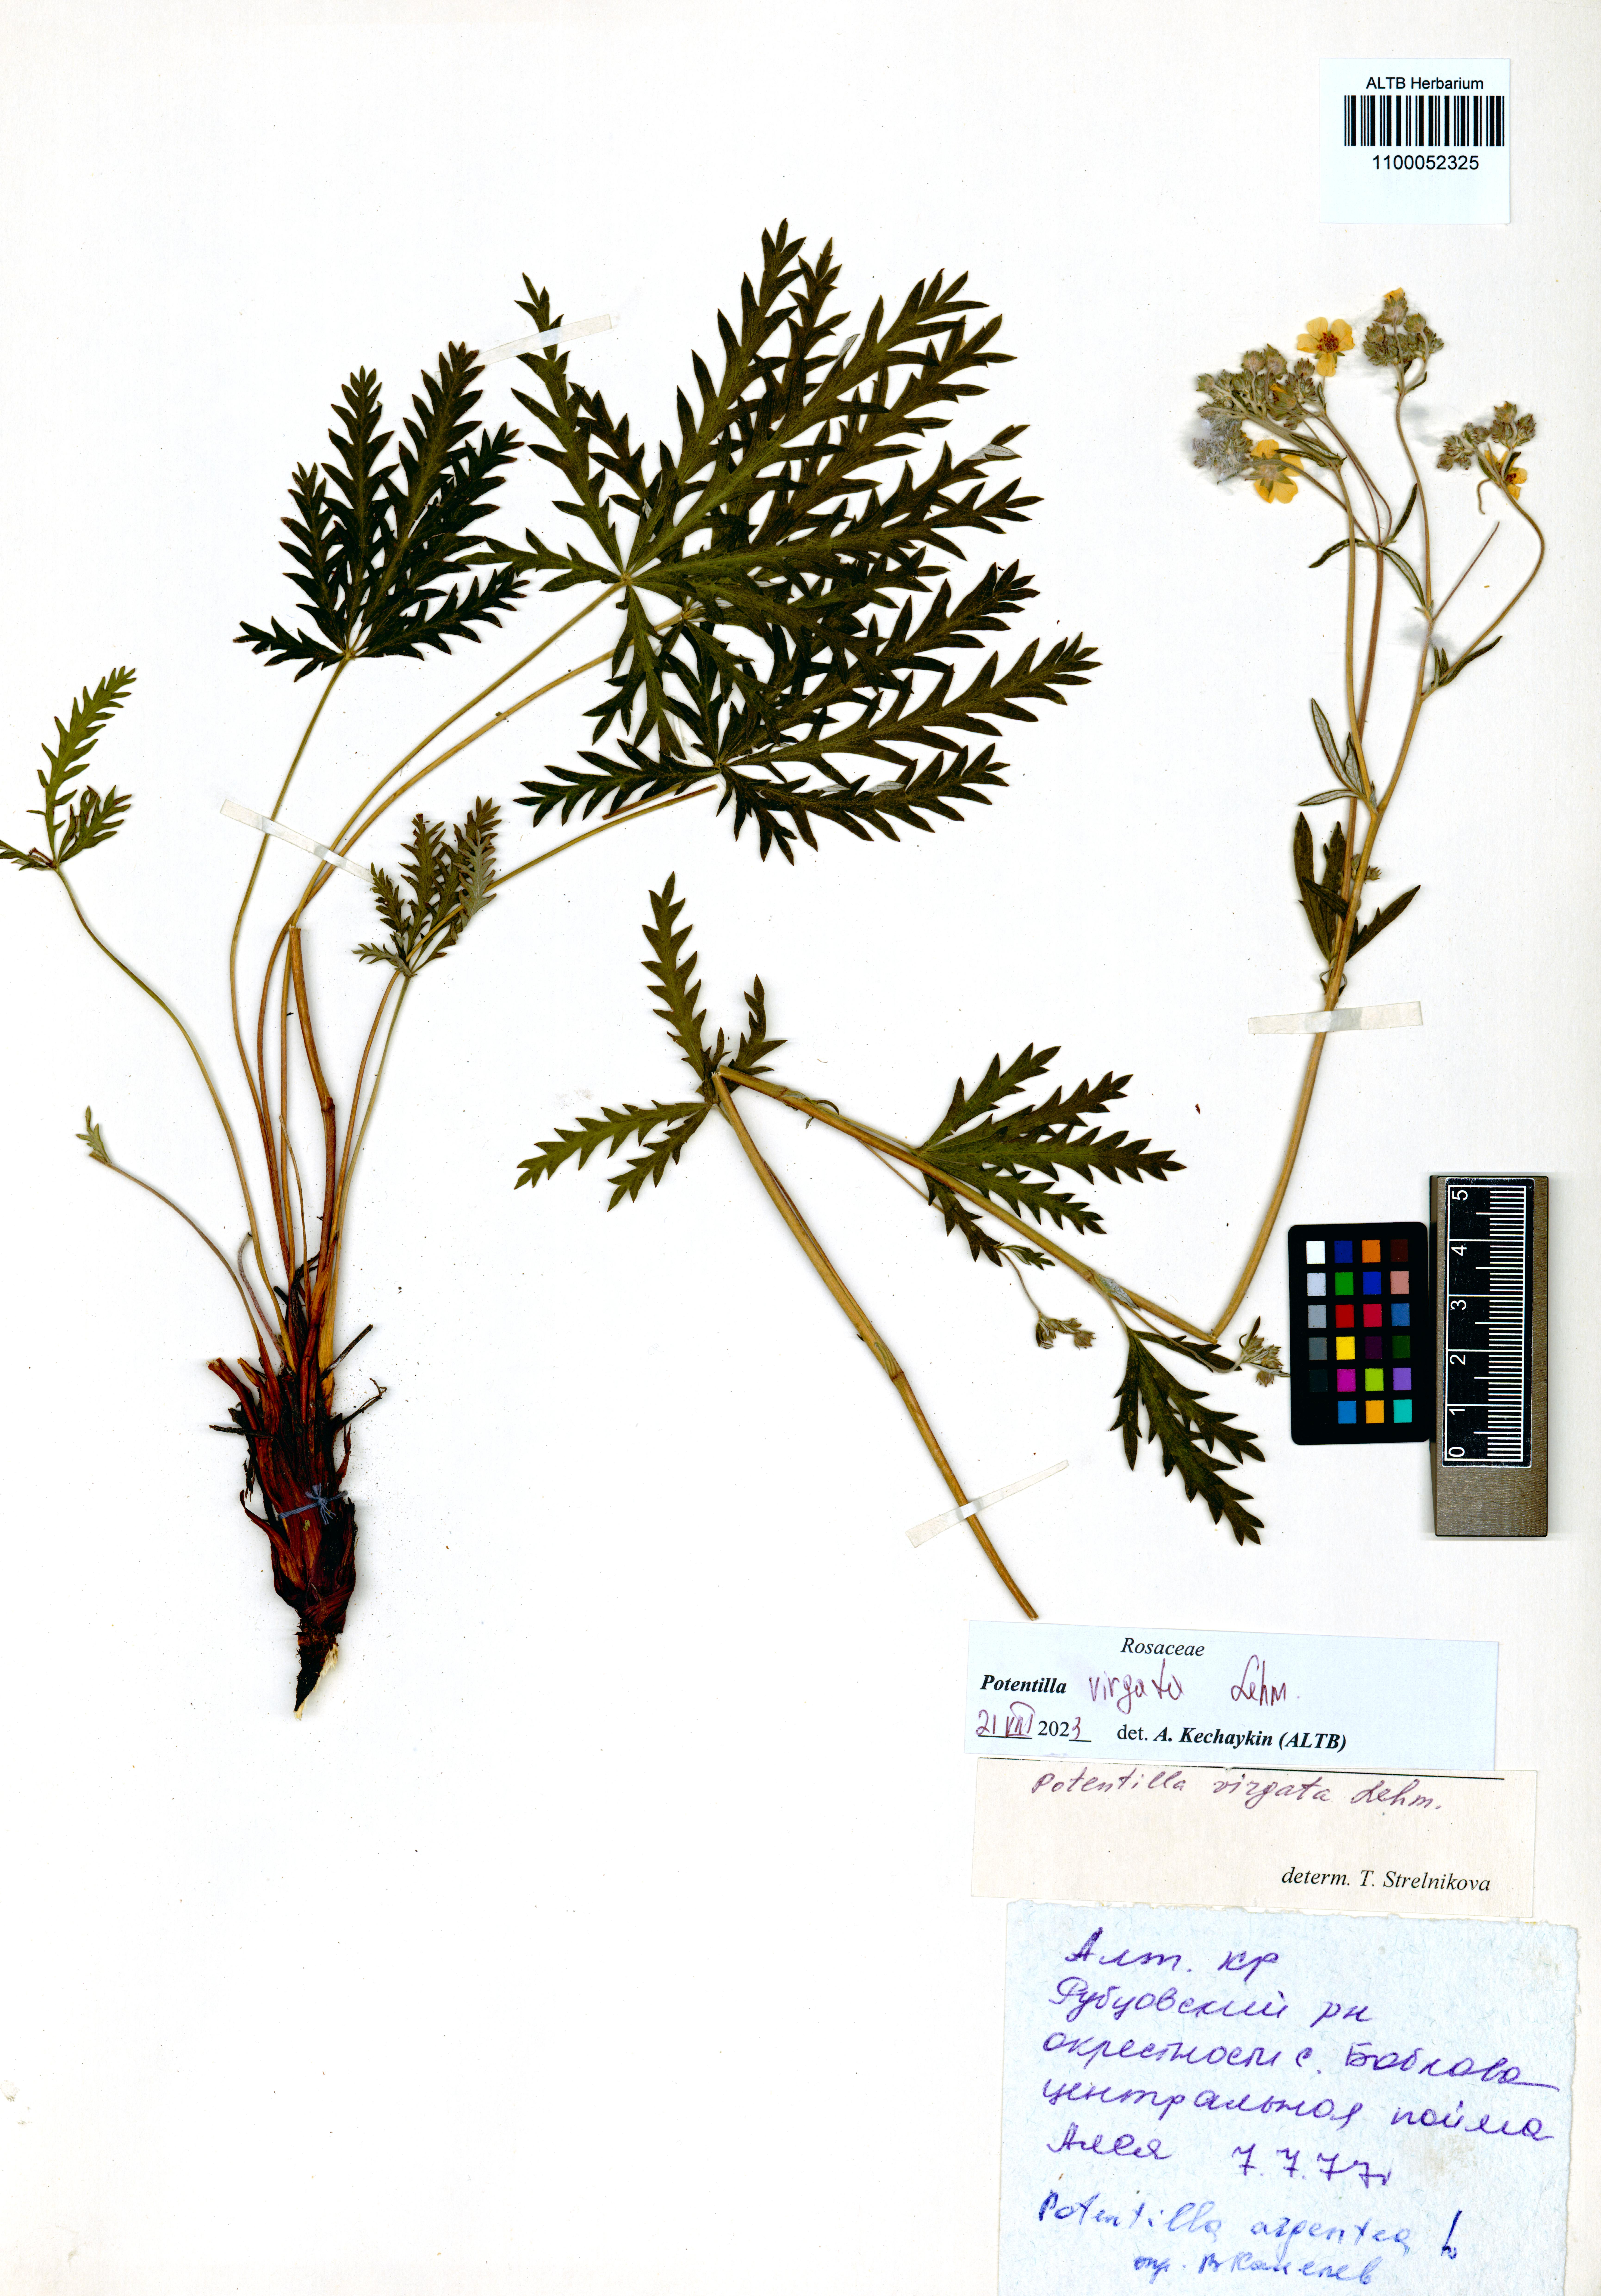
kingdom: Plantae
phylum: Tracheophyta
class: Magnoliopsida
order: Rosales
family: Rosaceae
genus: Potentilla
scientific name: Potentilla virgata
